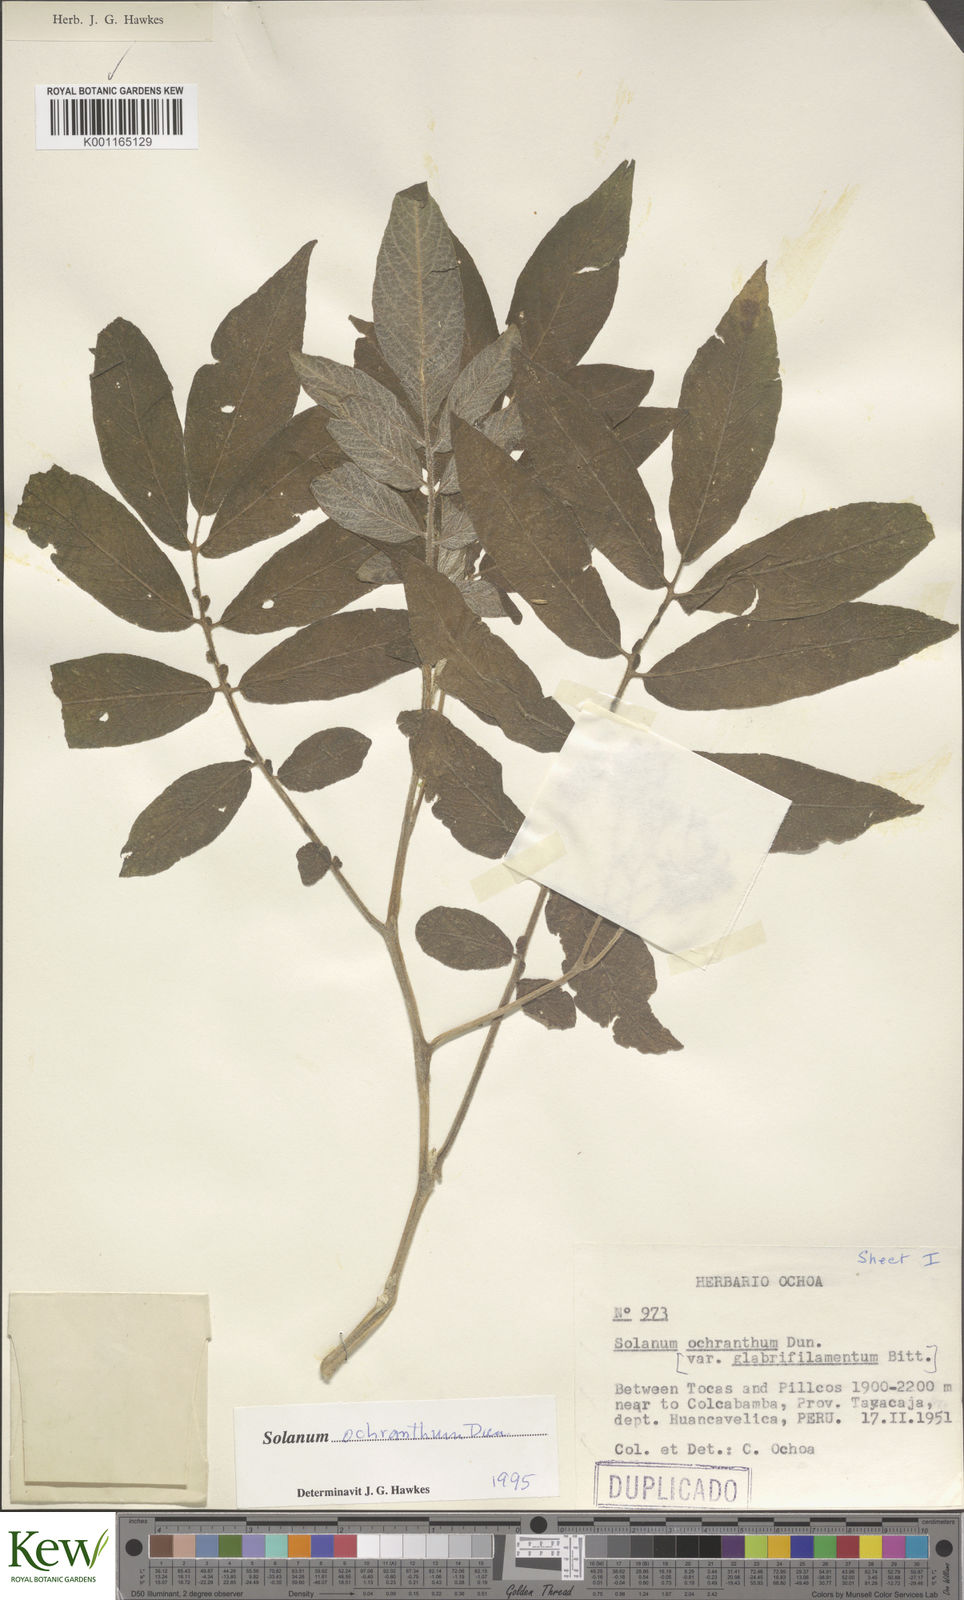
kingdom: Plantae
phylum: Tracheophyta
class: Magnoliopsida
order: Solanales
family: Solanaceae
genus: Solanum
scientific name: Solanum ochranthum
